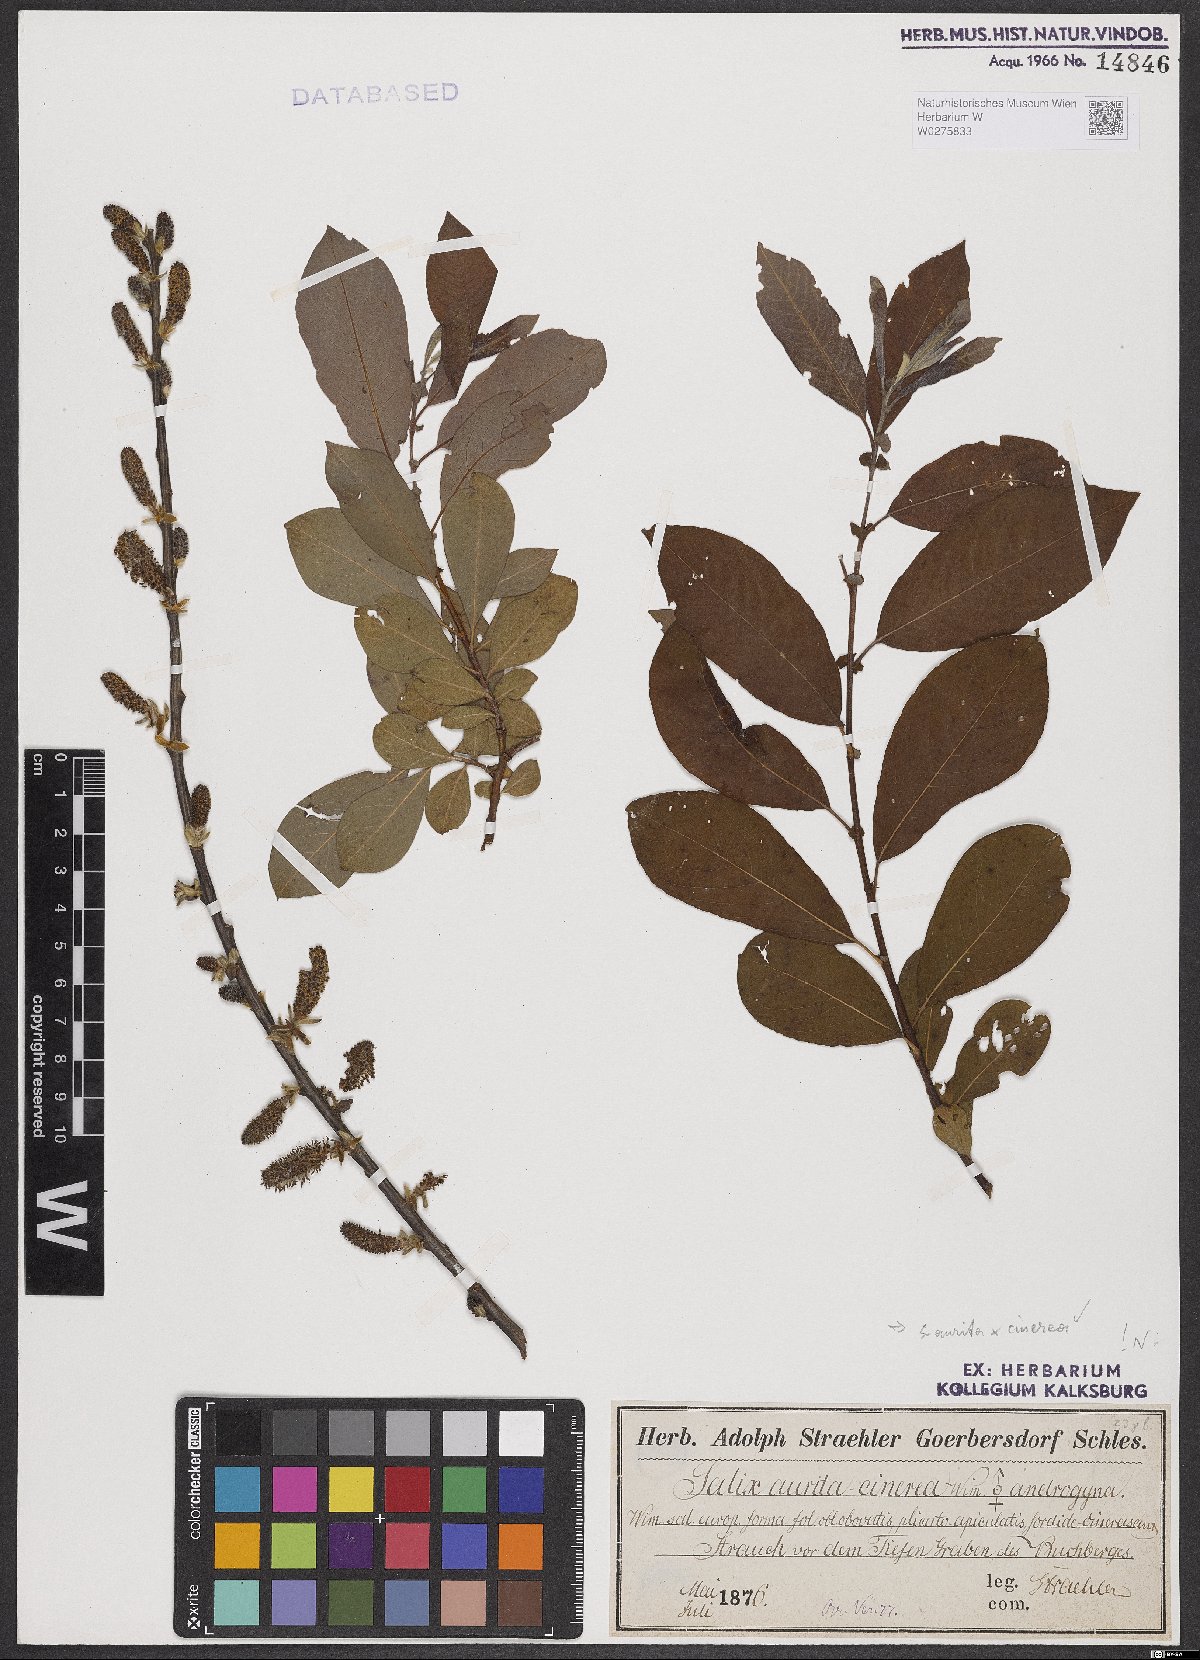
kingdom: Plantae
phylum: Tracheophyta
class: Magnoliopsida
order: Malpighiales
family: Salicaceae
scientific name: Salicaceae
